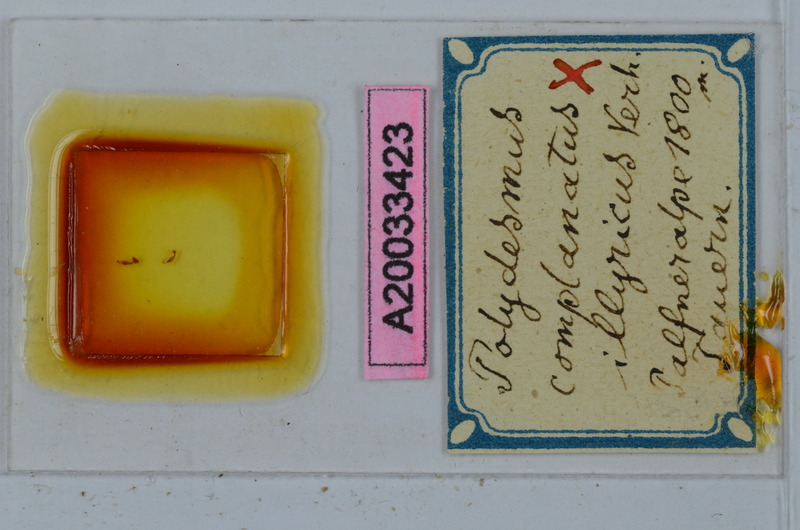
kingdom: Animalia
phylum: Arthropoda
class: Diplopoda
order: Polydesmida
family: Polydesmidae
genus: Polydesmus
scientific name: Polydesmus complanatus
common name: Flat-backed millipede
